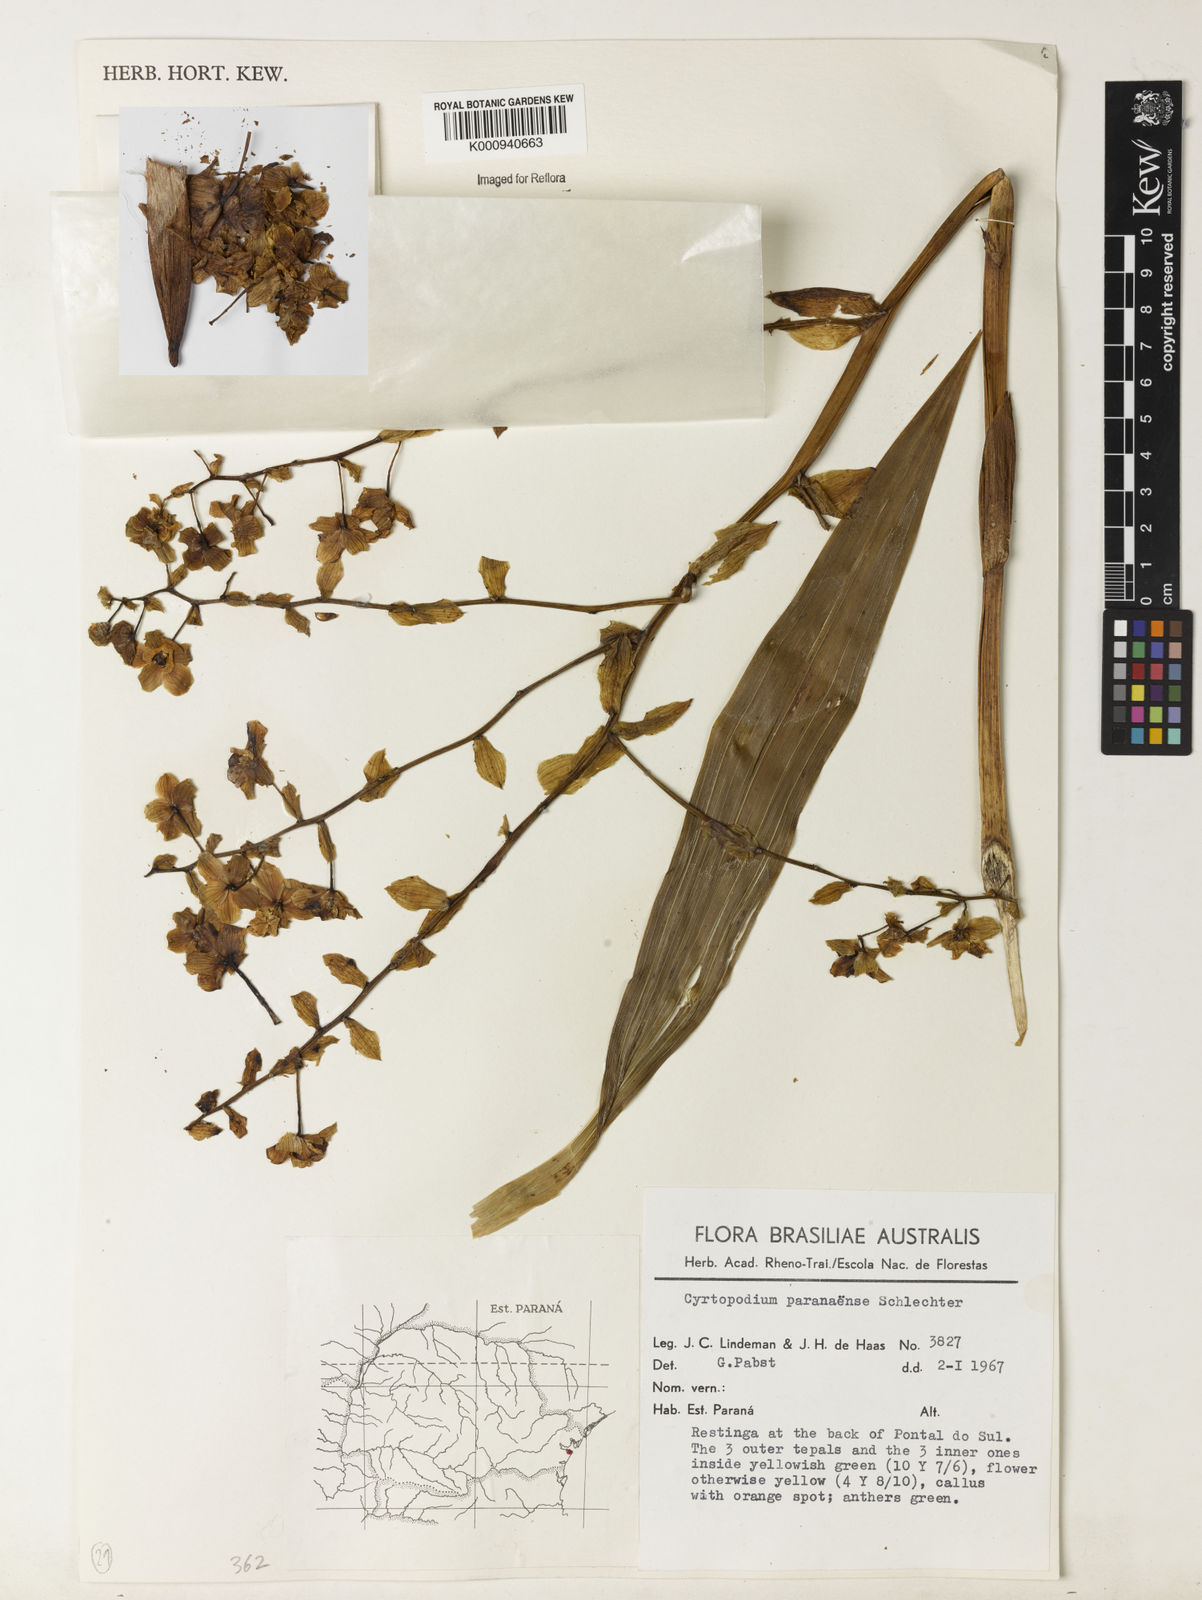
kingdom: Plantae
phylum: Tracheophyta
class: Liliopsida
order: Asparagales
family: Orchidaceae
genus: Cyrtopodium
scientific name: Cyrtopodium flavum
